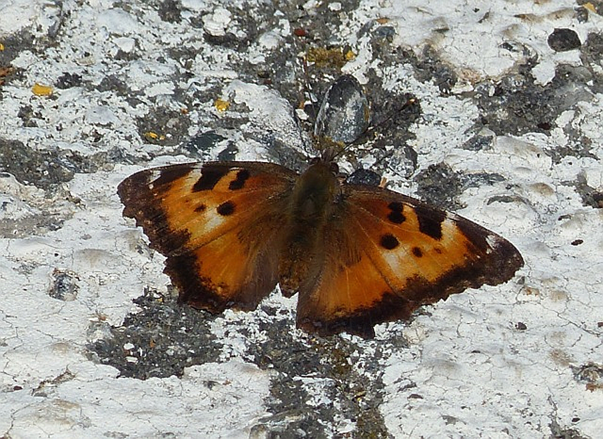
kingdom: Animalia
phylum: Arthropoda
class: Insecta
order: Lepidoptera
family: Nymphalidae
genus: Nymphalis
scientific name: Nymphalis californica
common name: California Tortoiseshell
